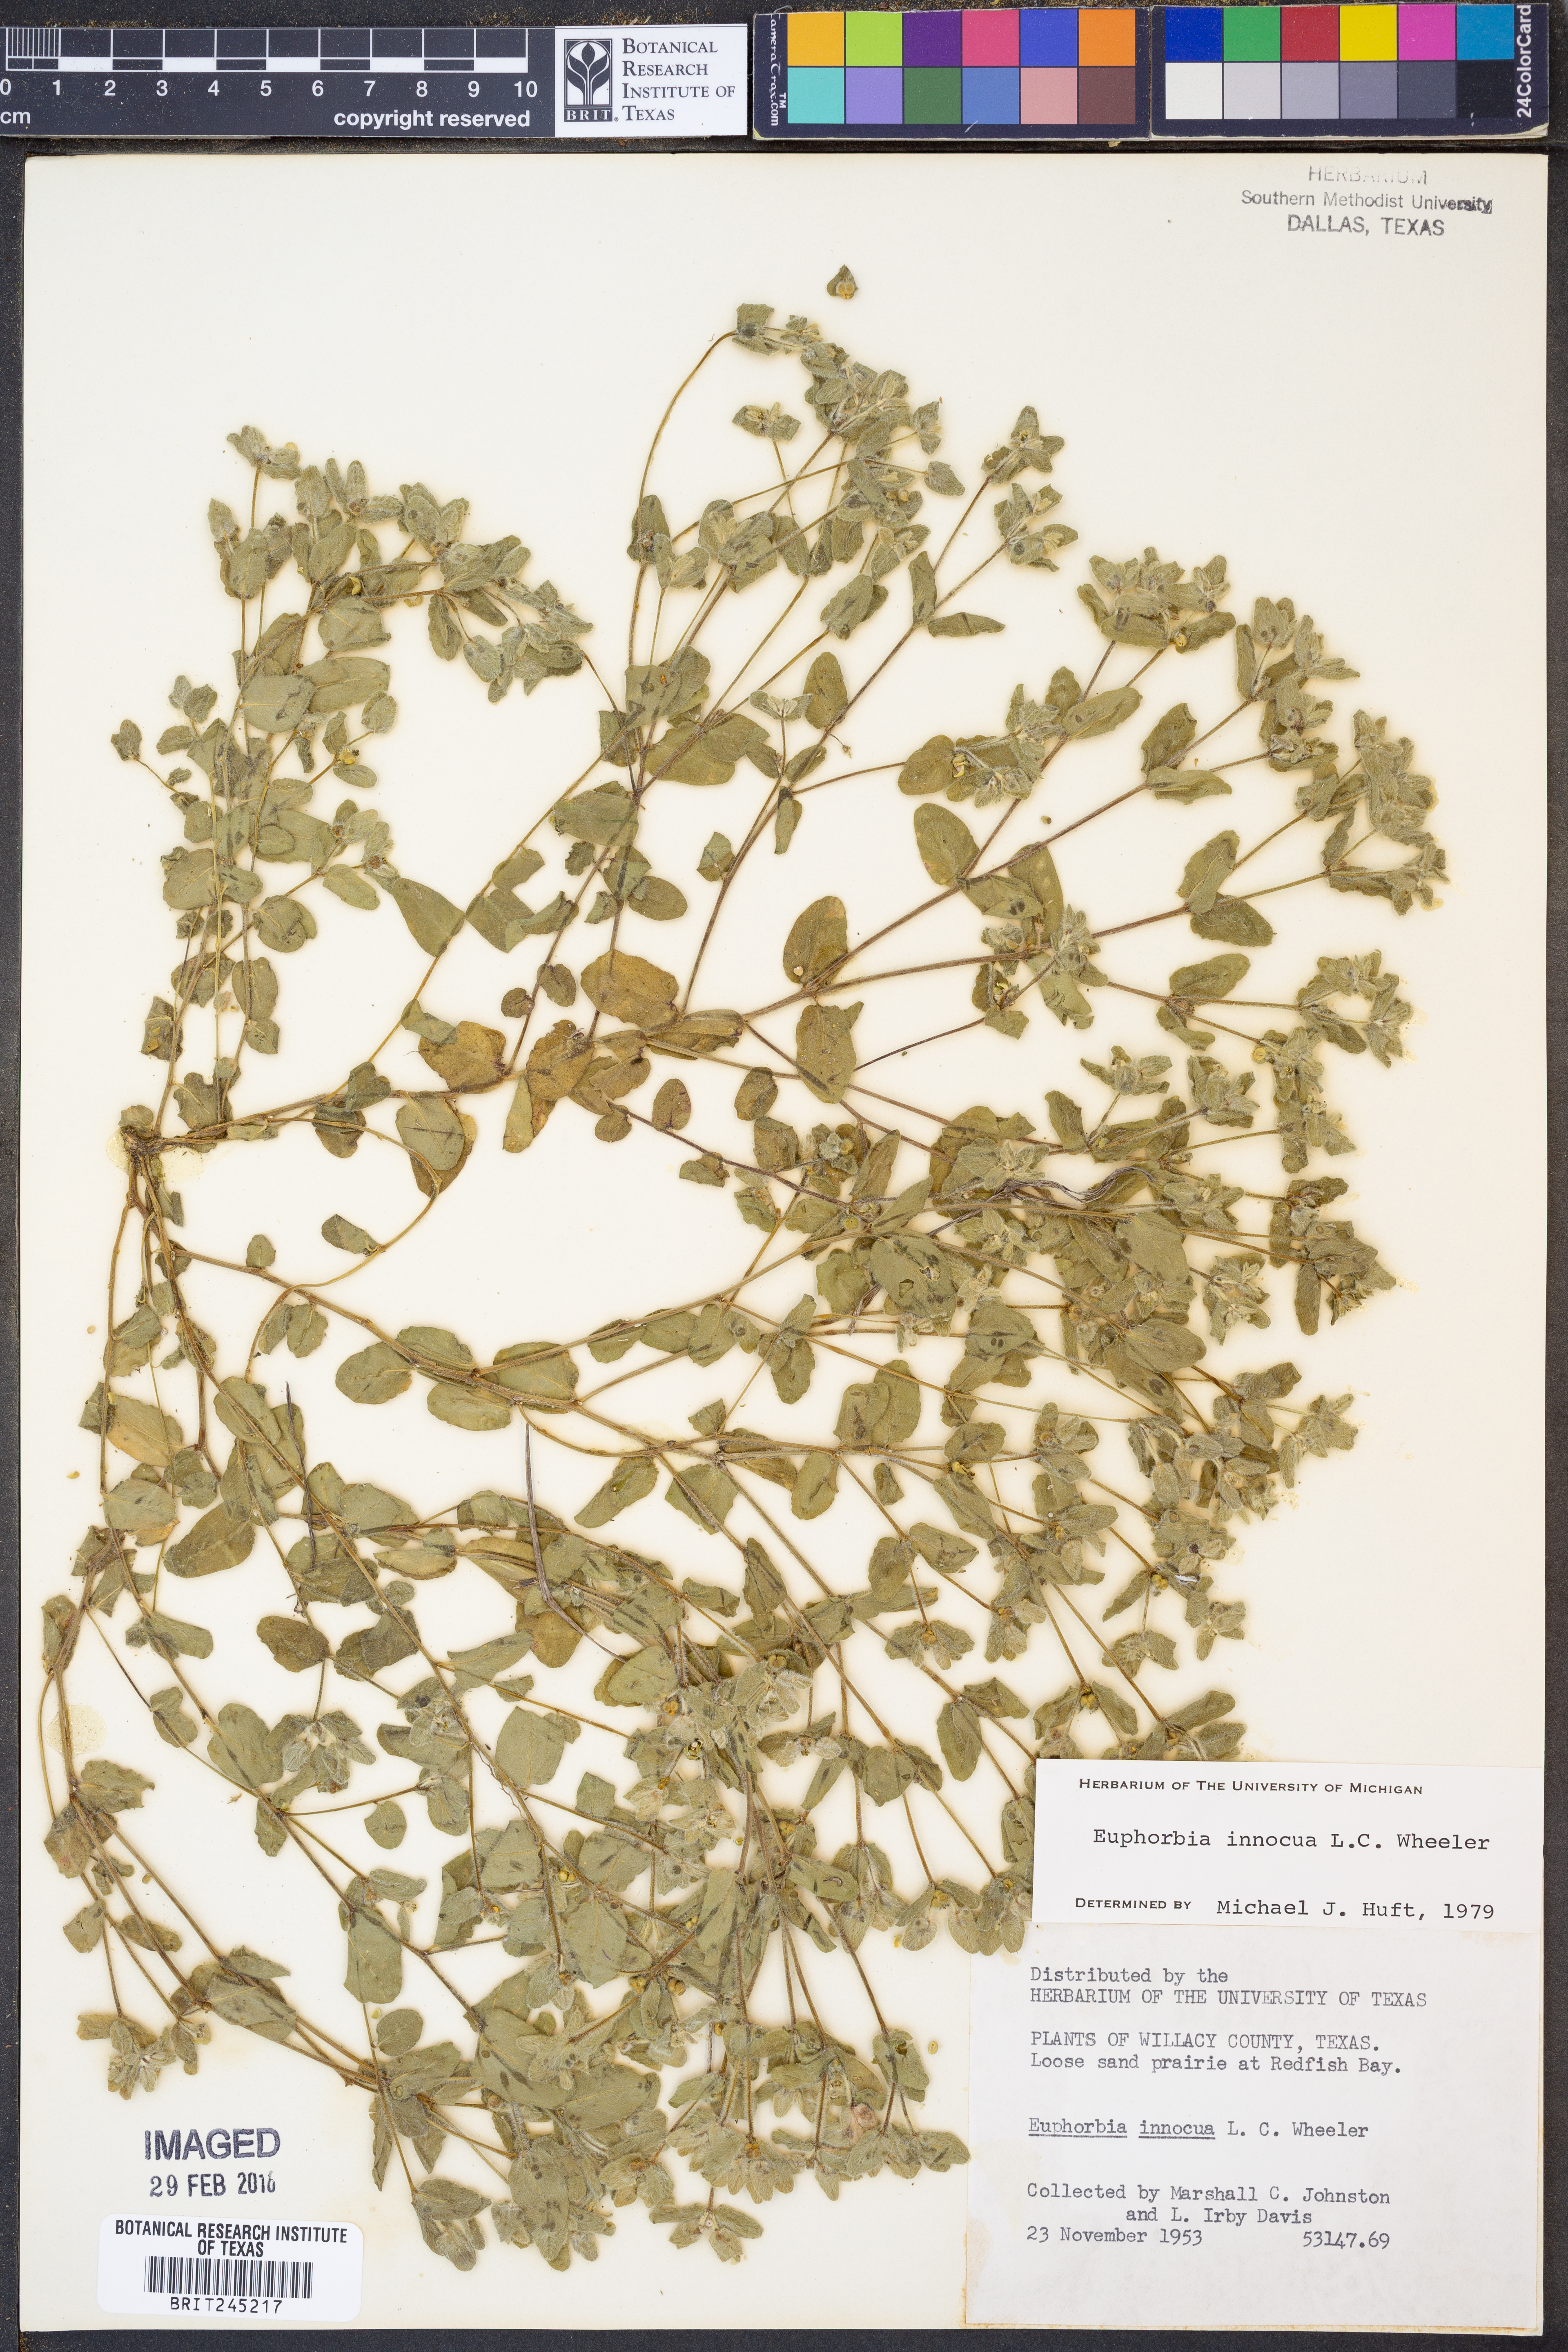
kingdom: Plantae
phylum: Tracheophyta
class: Magnoliopsida
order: Malpighiales
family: Euphorbiaceae
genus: Euphorbia
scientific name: Euphorbia innocua
